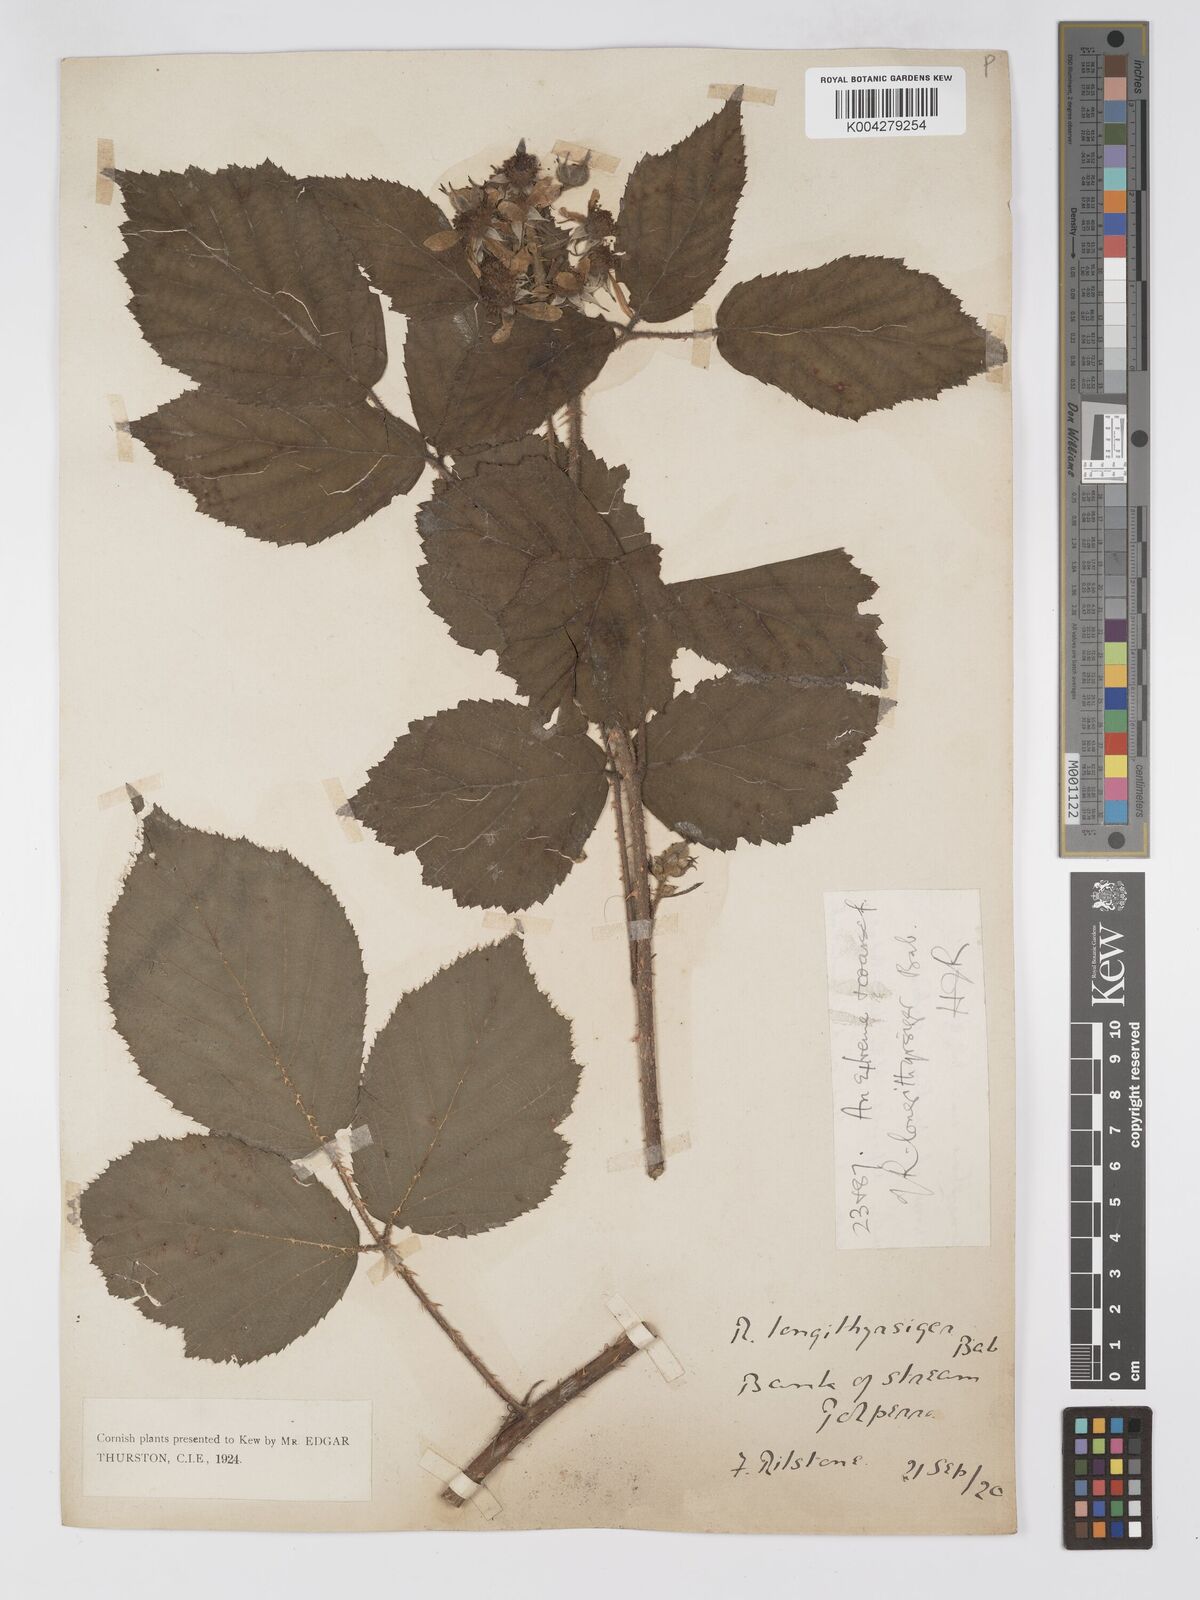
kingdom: Plantae
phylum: Tracheophyta
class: Magnoliopsida
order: Rosales
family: Rosaceae
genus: Rubus
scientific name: Rubus longithyrsiger
